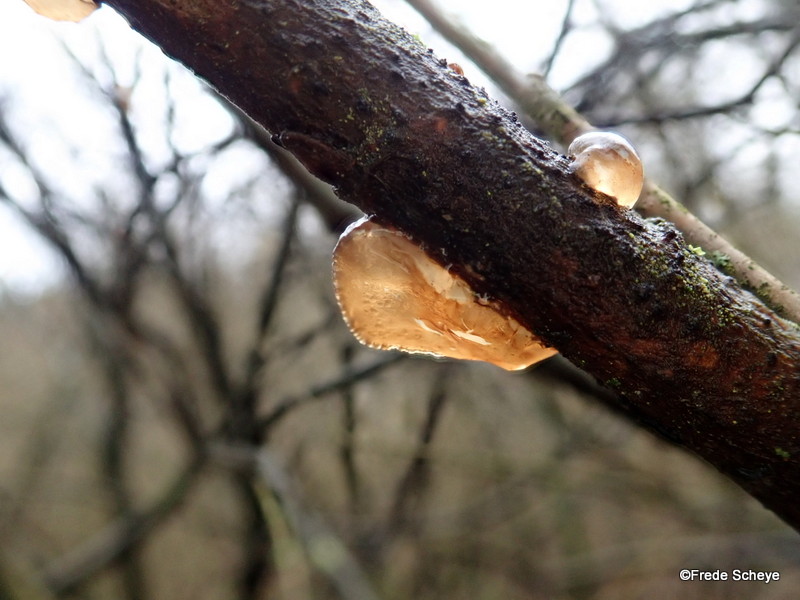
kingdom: Fungi
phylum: Basidiomycota
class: Agaricomycetes
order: Auriculariales
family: Auriculariaceae
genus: Exidia
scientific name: Exidia recisa
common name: pile-bævretop
